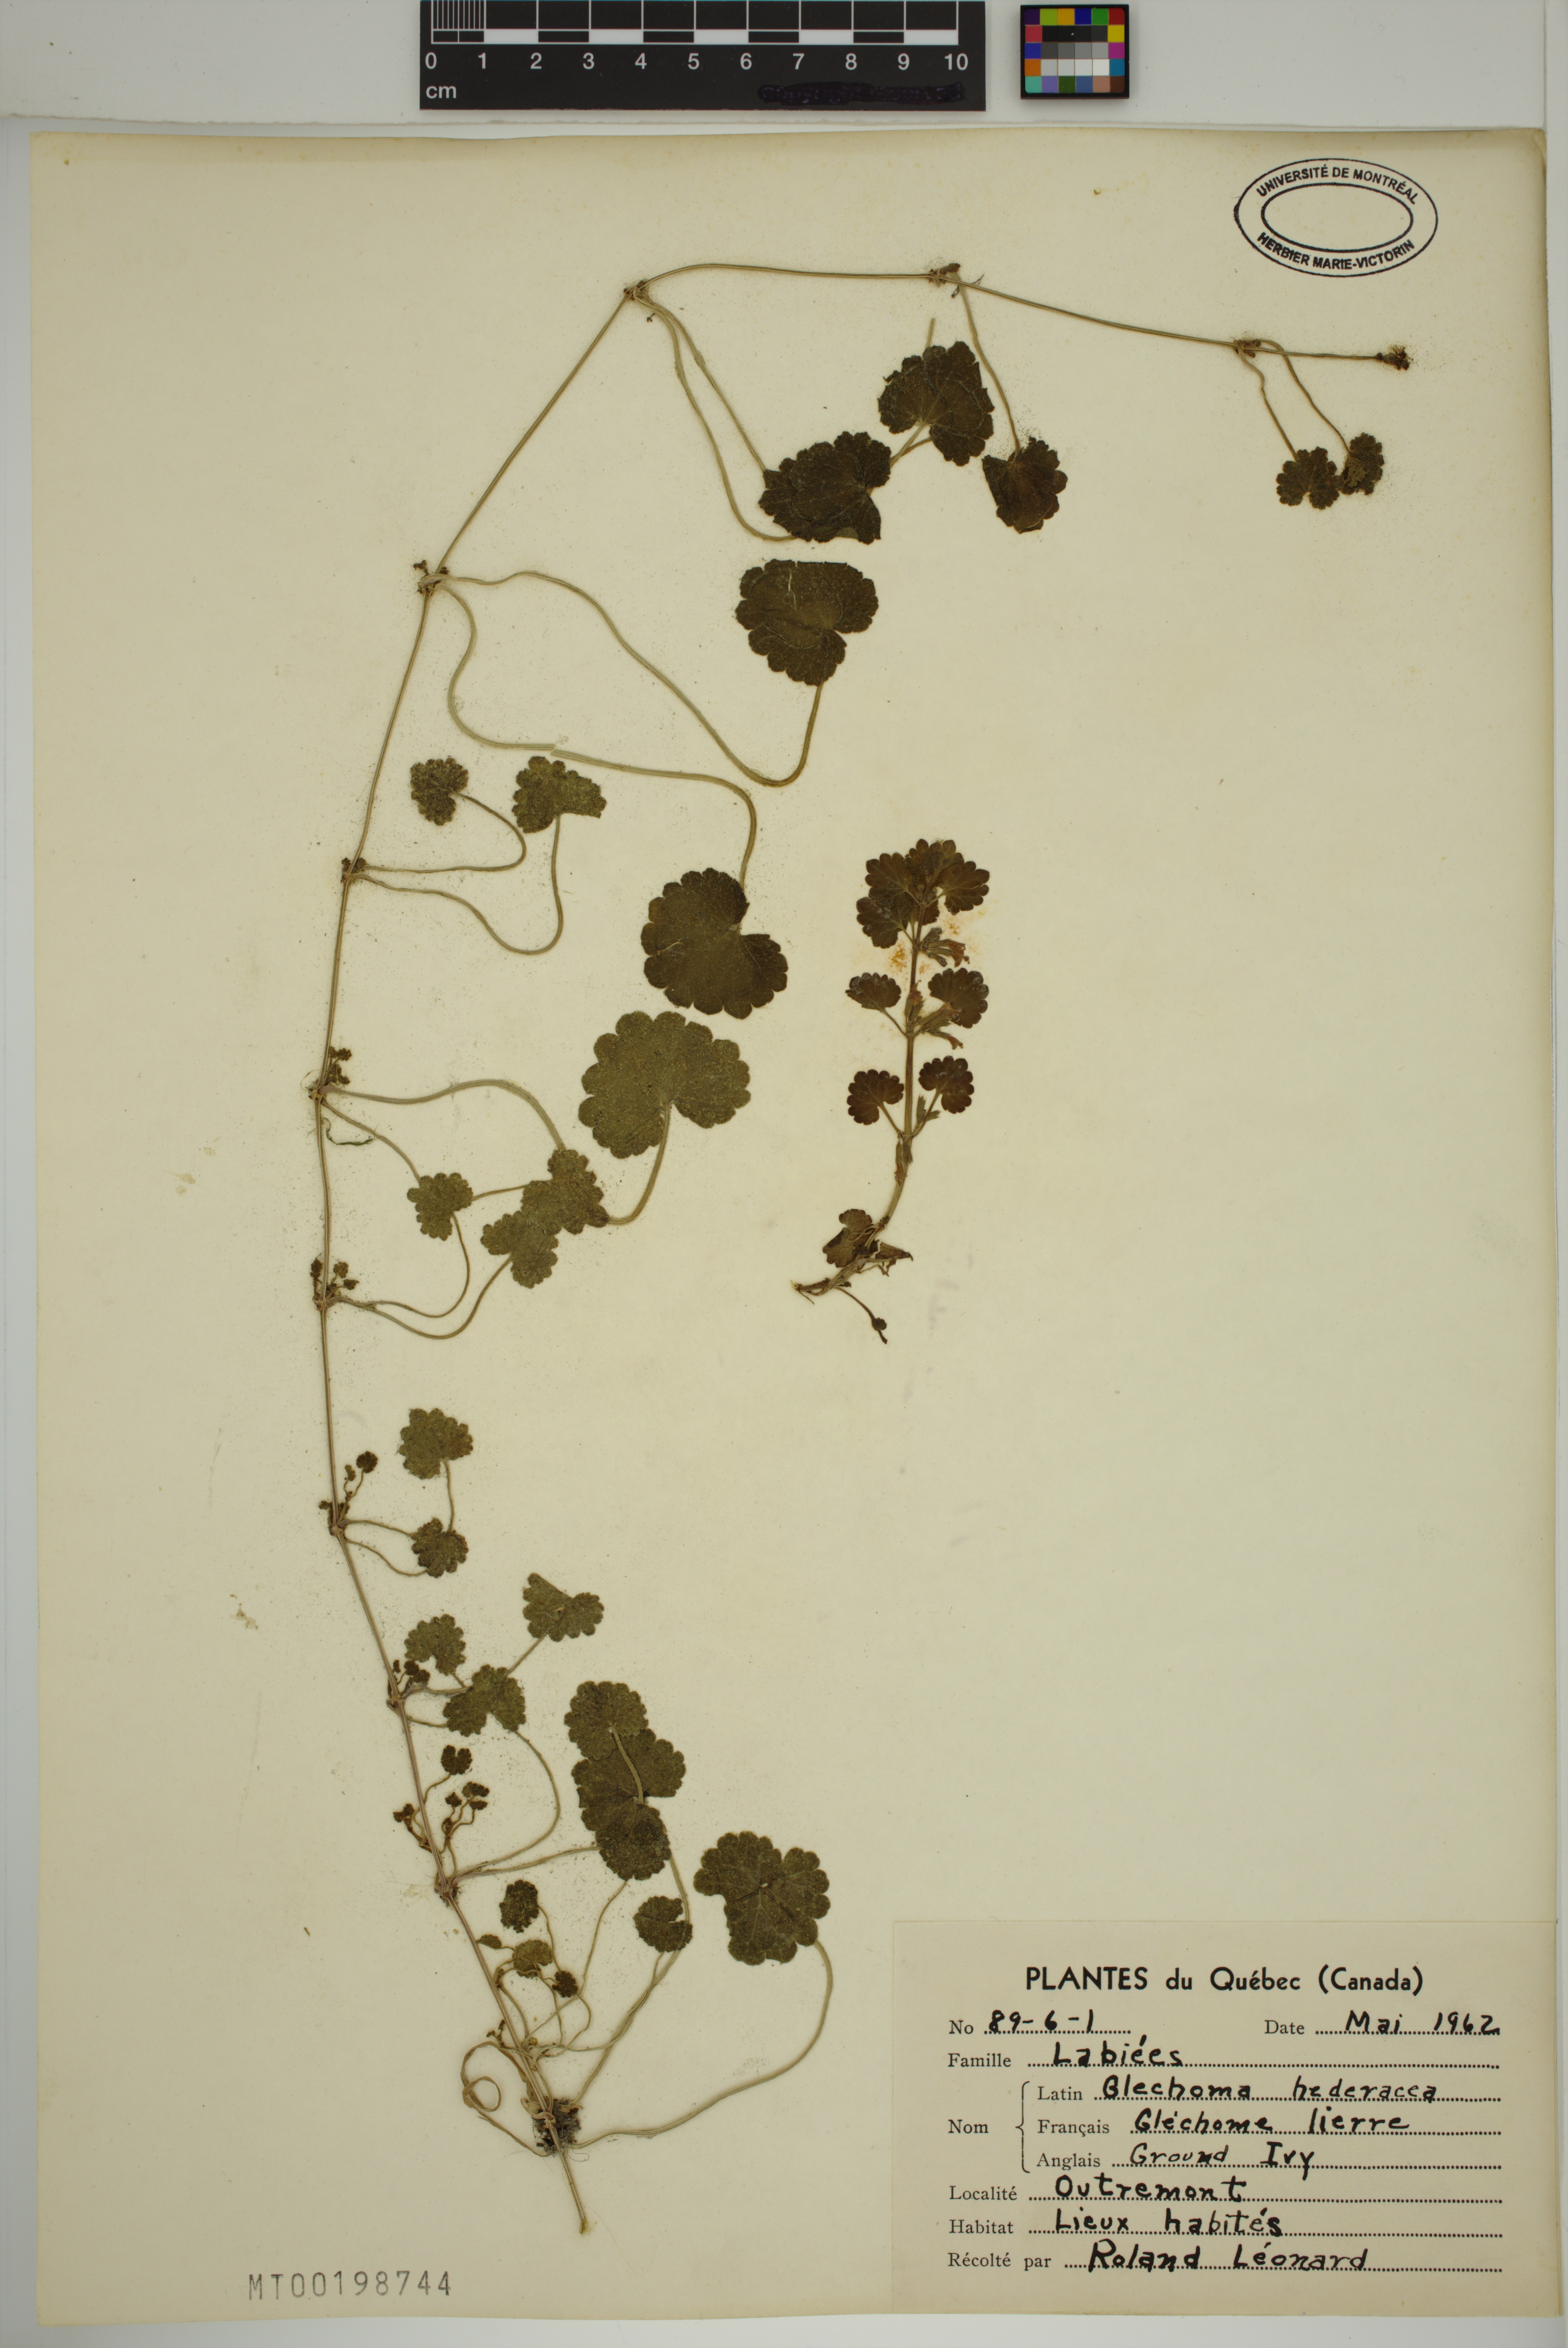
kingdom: Plantae
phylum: Tracheophyta
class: Magnoliopsida
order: Lamiales
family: Lamiaceae
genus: Glechoma
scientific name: Glechoma hederacea
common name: Ground ivy
